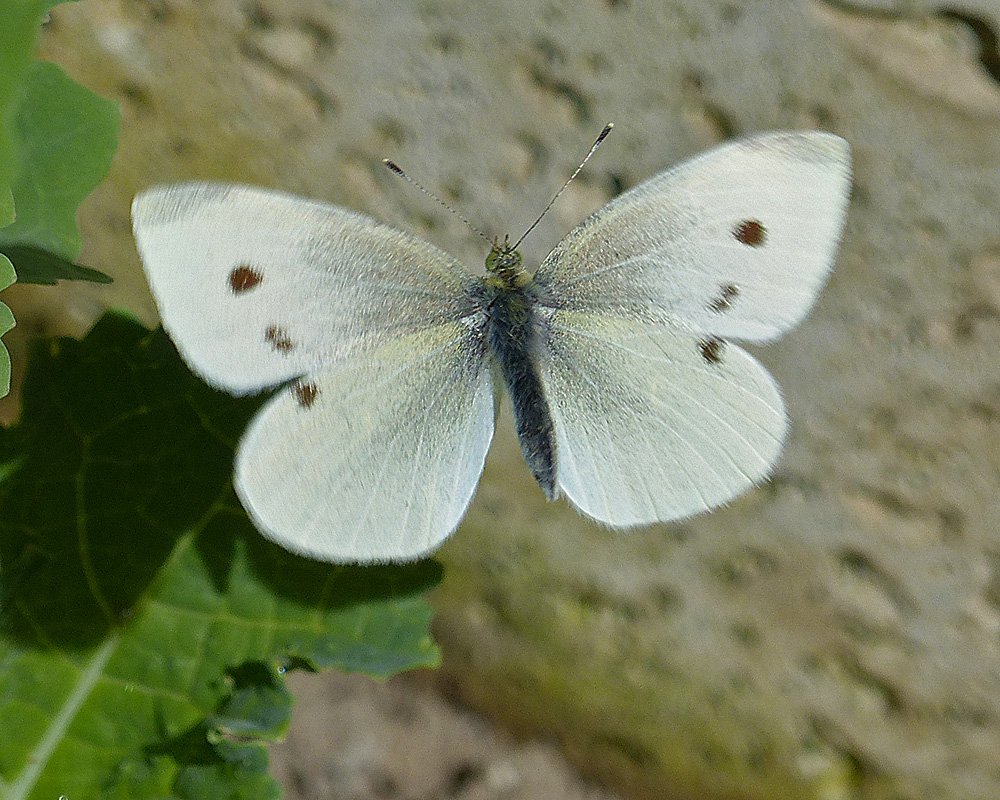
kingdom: Animalia
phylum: Arthropoda
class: Insecta
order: Lepidoptera
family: Pieridae
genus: Pieris
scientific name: Pieris rapae
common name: Cabbage White
